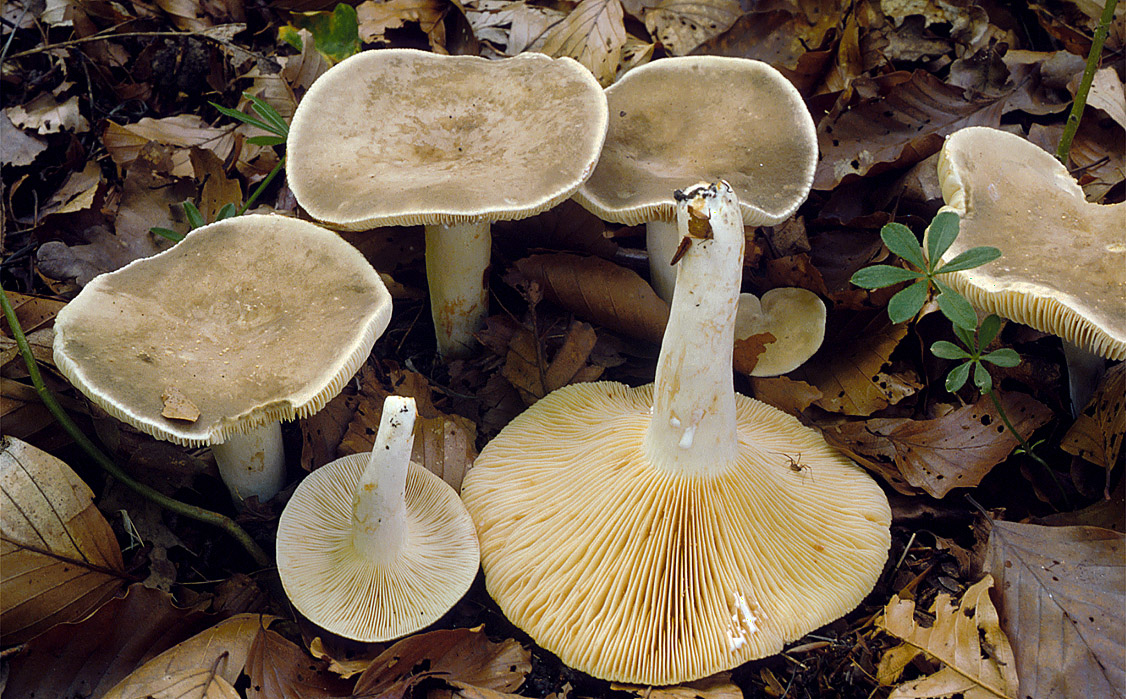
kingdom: Fungi
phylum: Basidiomycota
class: Agaricomycetes
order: Russulales
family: Russulaceae
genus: Lactarius
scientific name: Lactarius azonites
